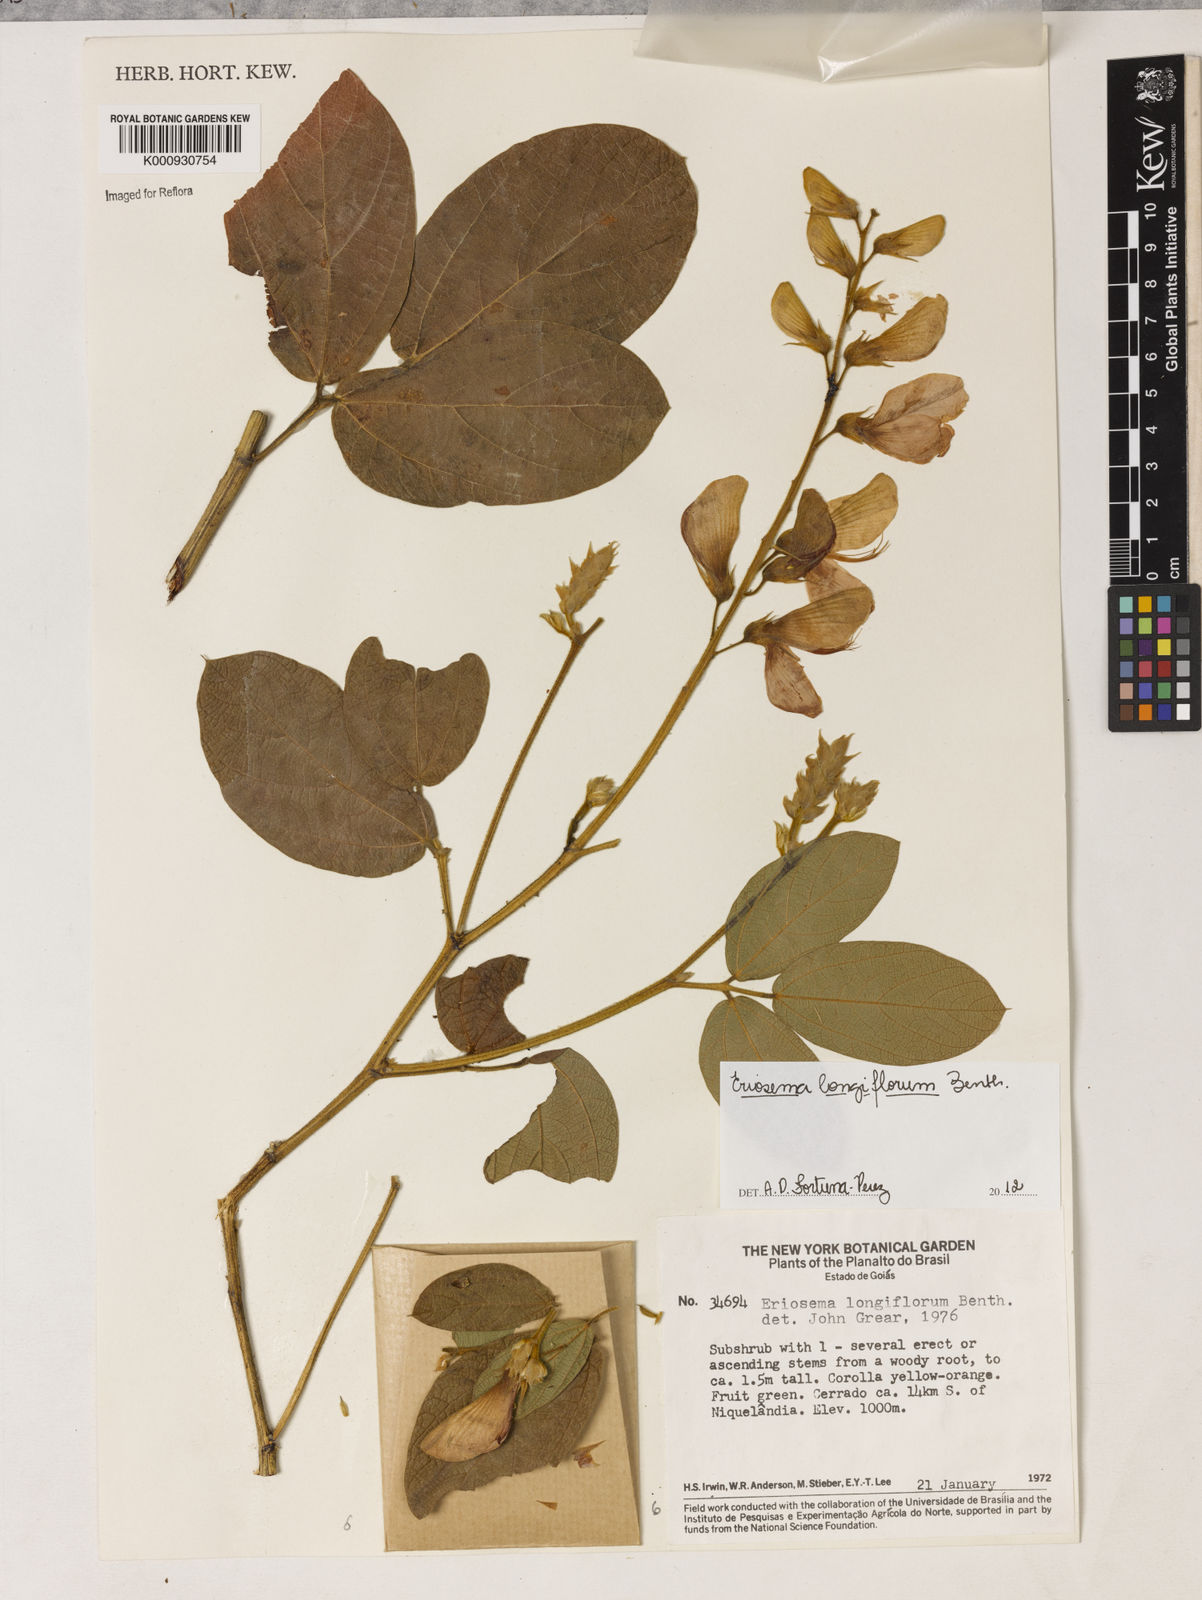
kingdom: Plantae
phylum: Tracheophyta
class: Magnoliopsida
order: Fabales
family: Fabaceae
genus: Eriosema
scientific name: Eriosema longiflorum
